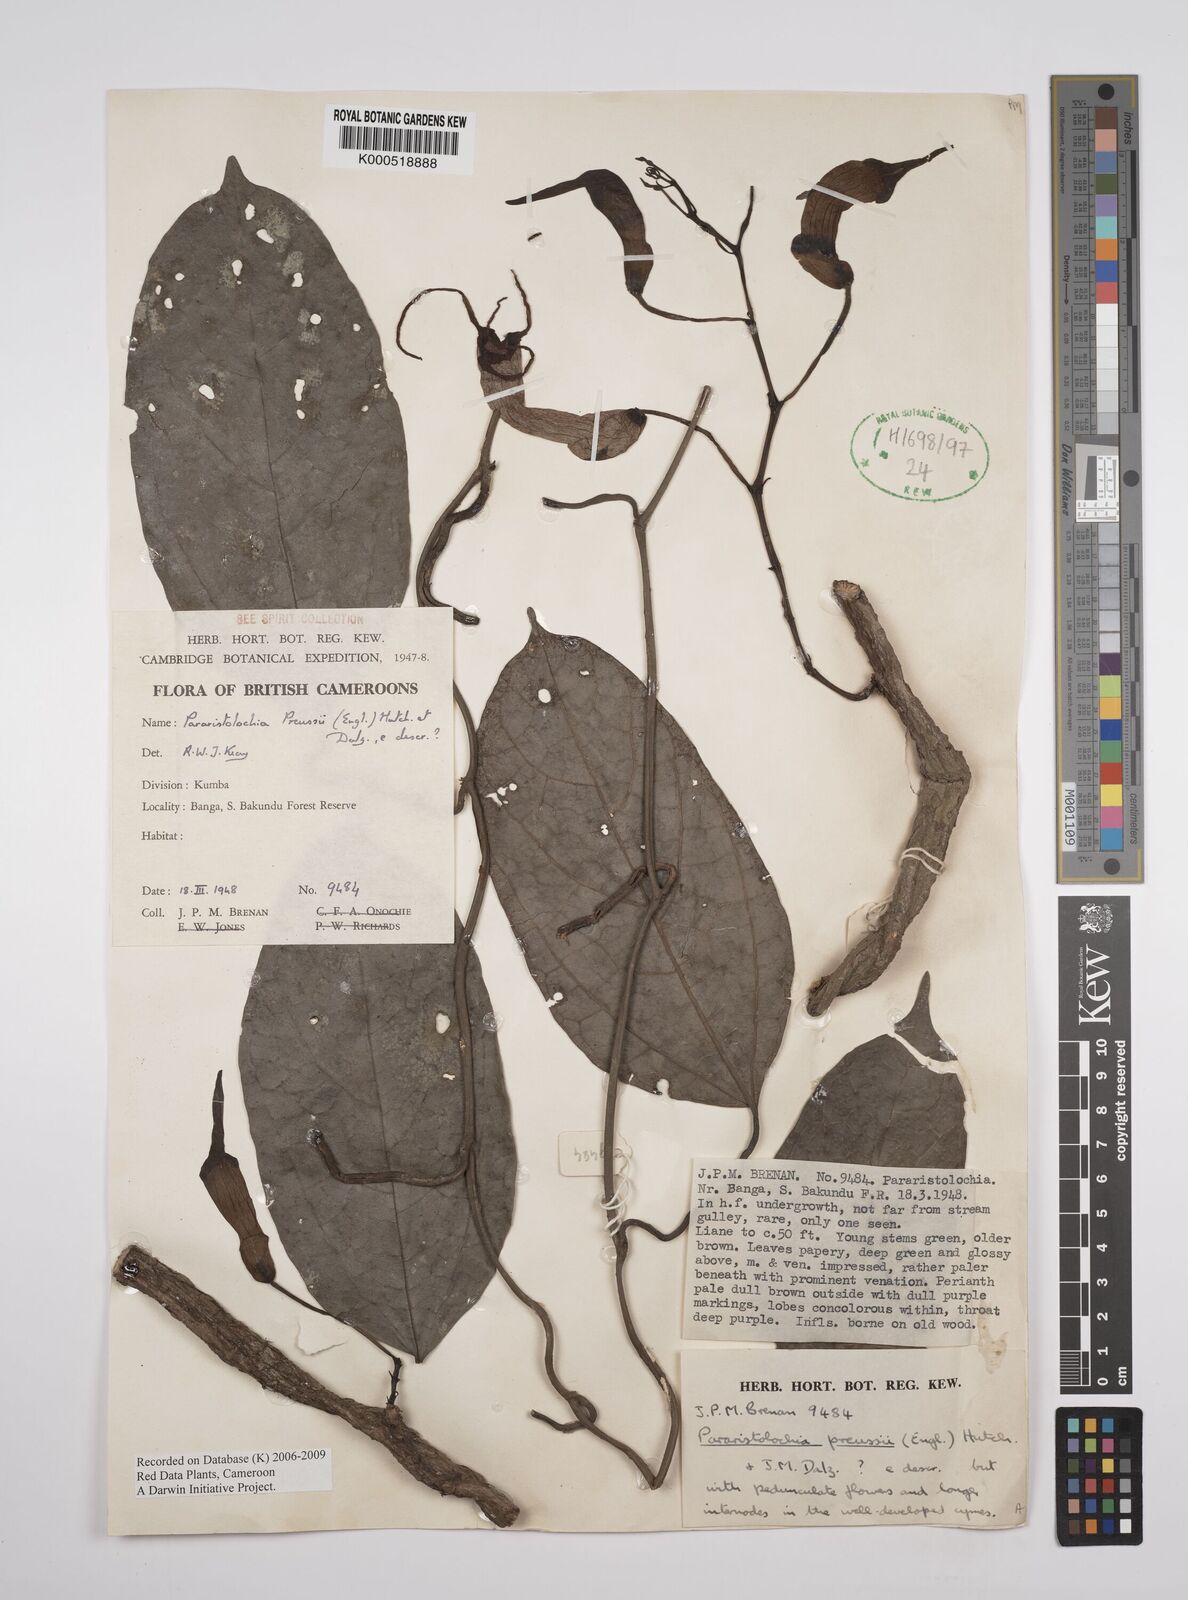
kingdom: Plantae
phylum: Tracheophyta
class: Magnoliopsida
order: Piperales
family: Aristolochiaceae
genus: Aristolochia
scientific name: Aristolochia preussii
